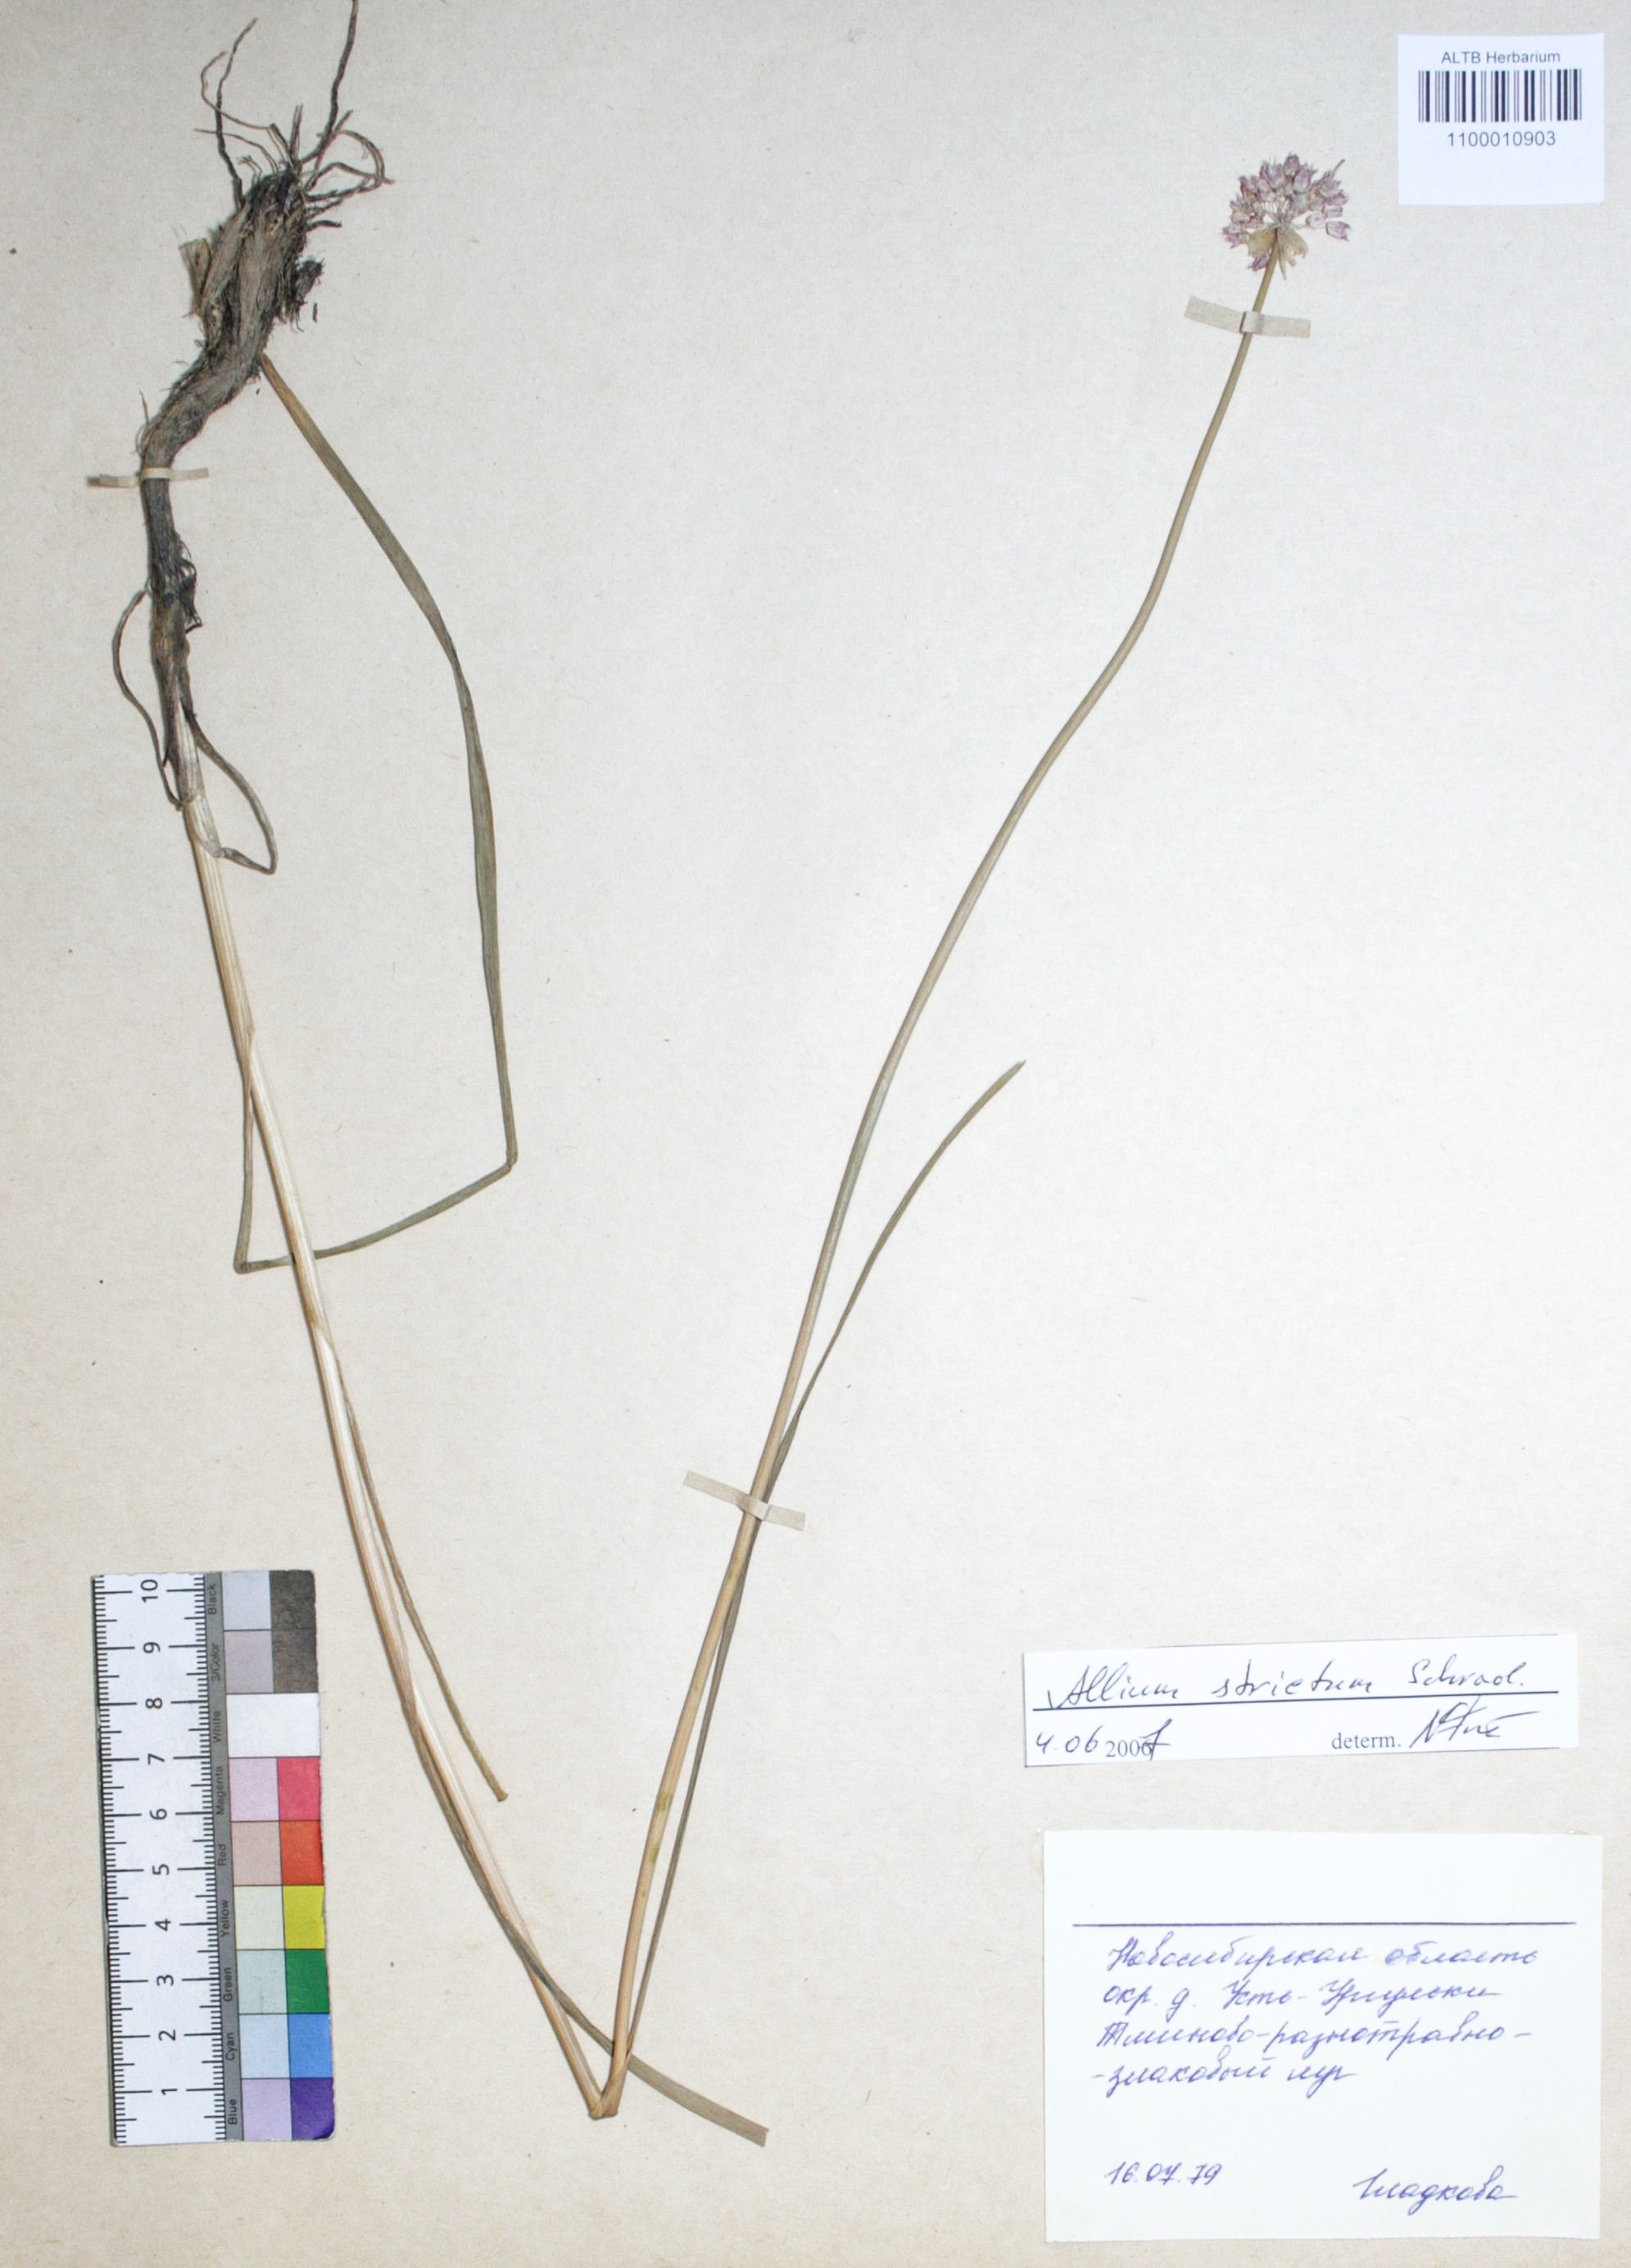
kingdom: Plantae
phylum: Tracheophyta
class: Liliopsida
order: Asparagales
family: Amaryllidaceae
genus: Allium
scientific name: Allium strictum
